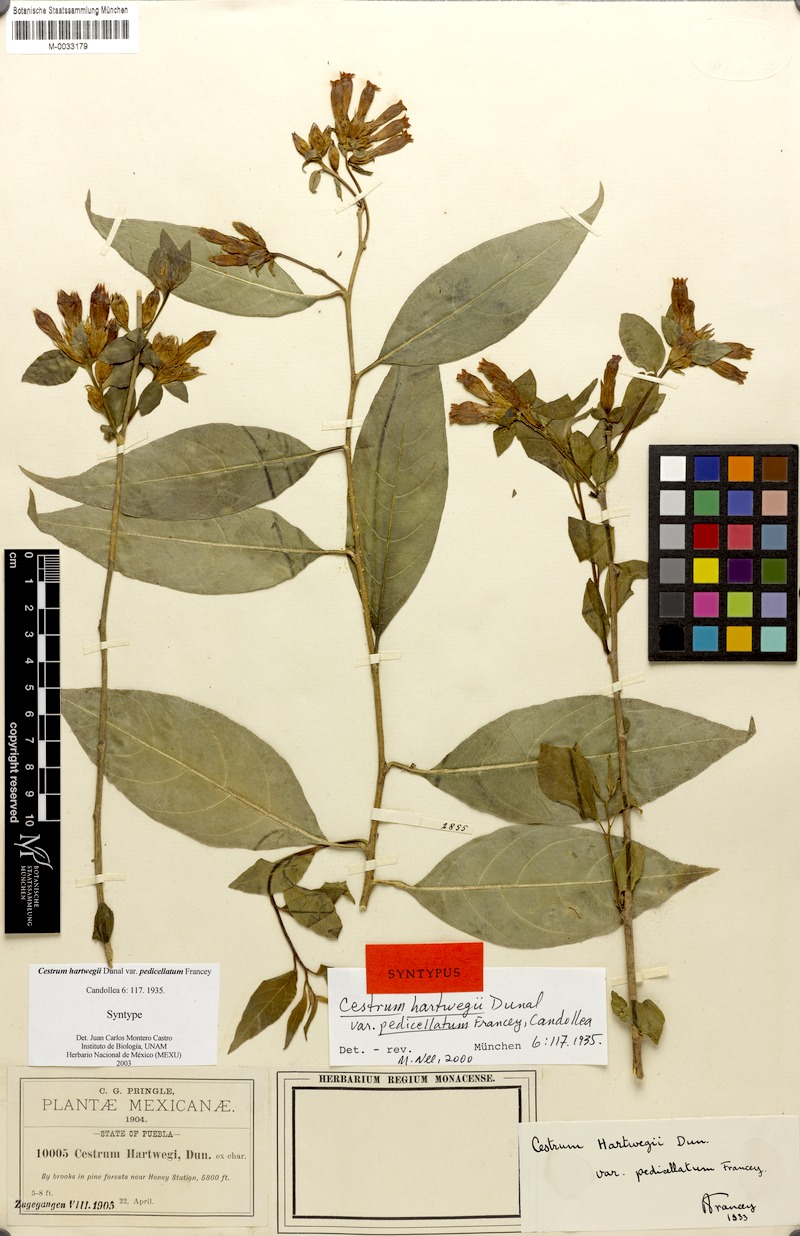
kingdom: Plantae
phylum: Tracheophyta
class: Magnoliopsida
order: Solanales
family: Solanaceae
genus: Cestrum
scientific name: Cestrum hartwegii
